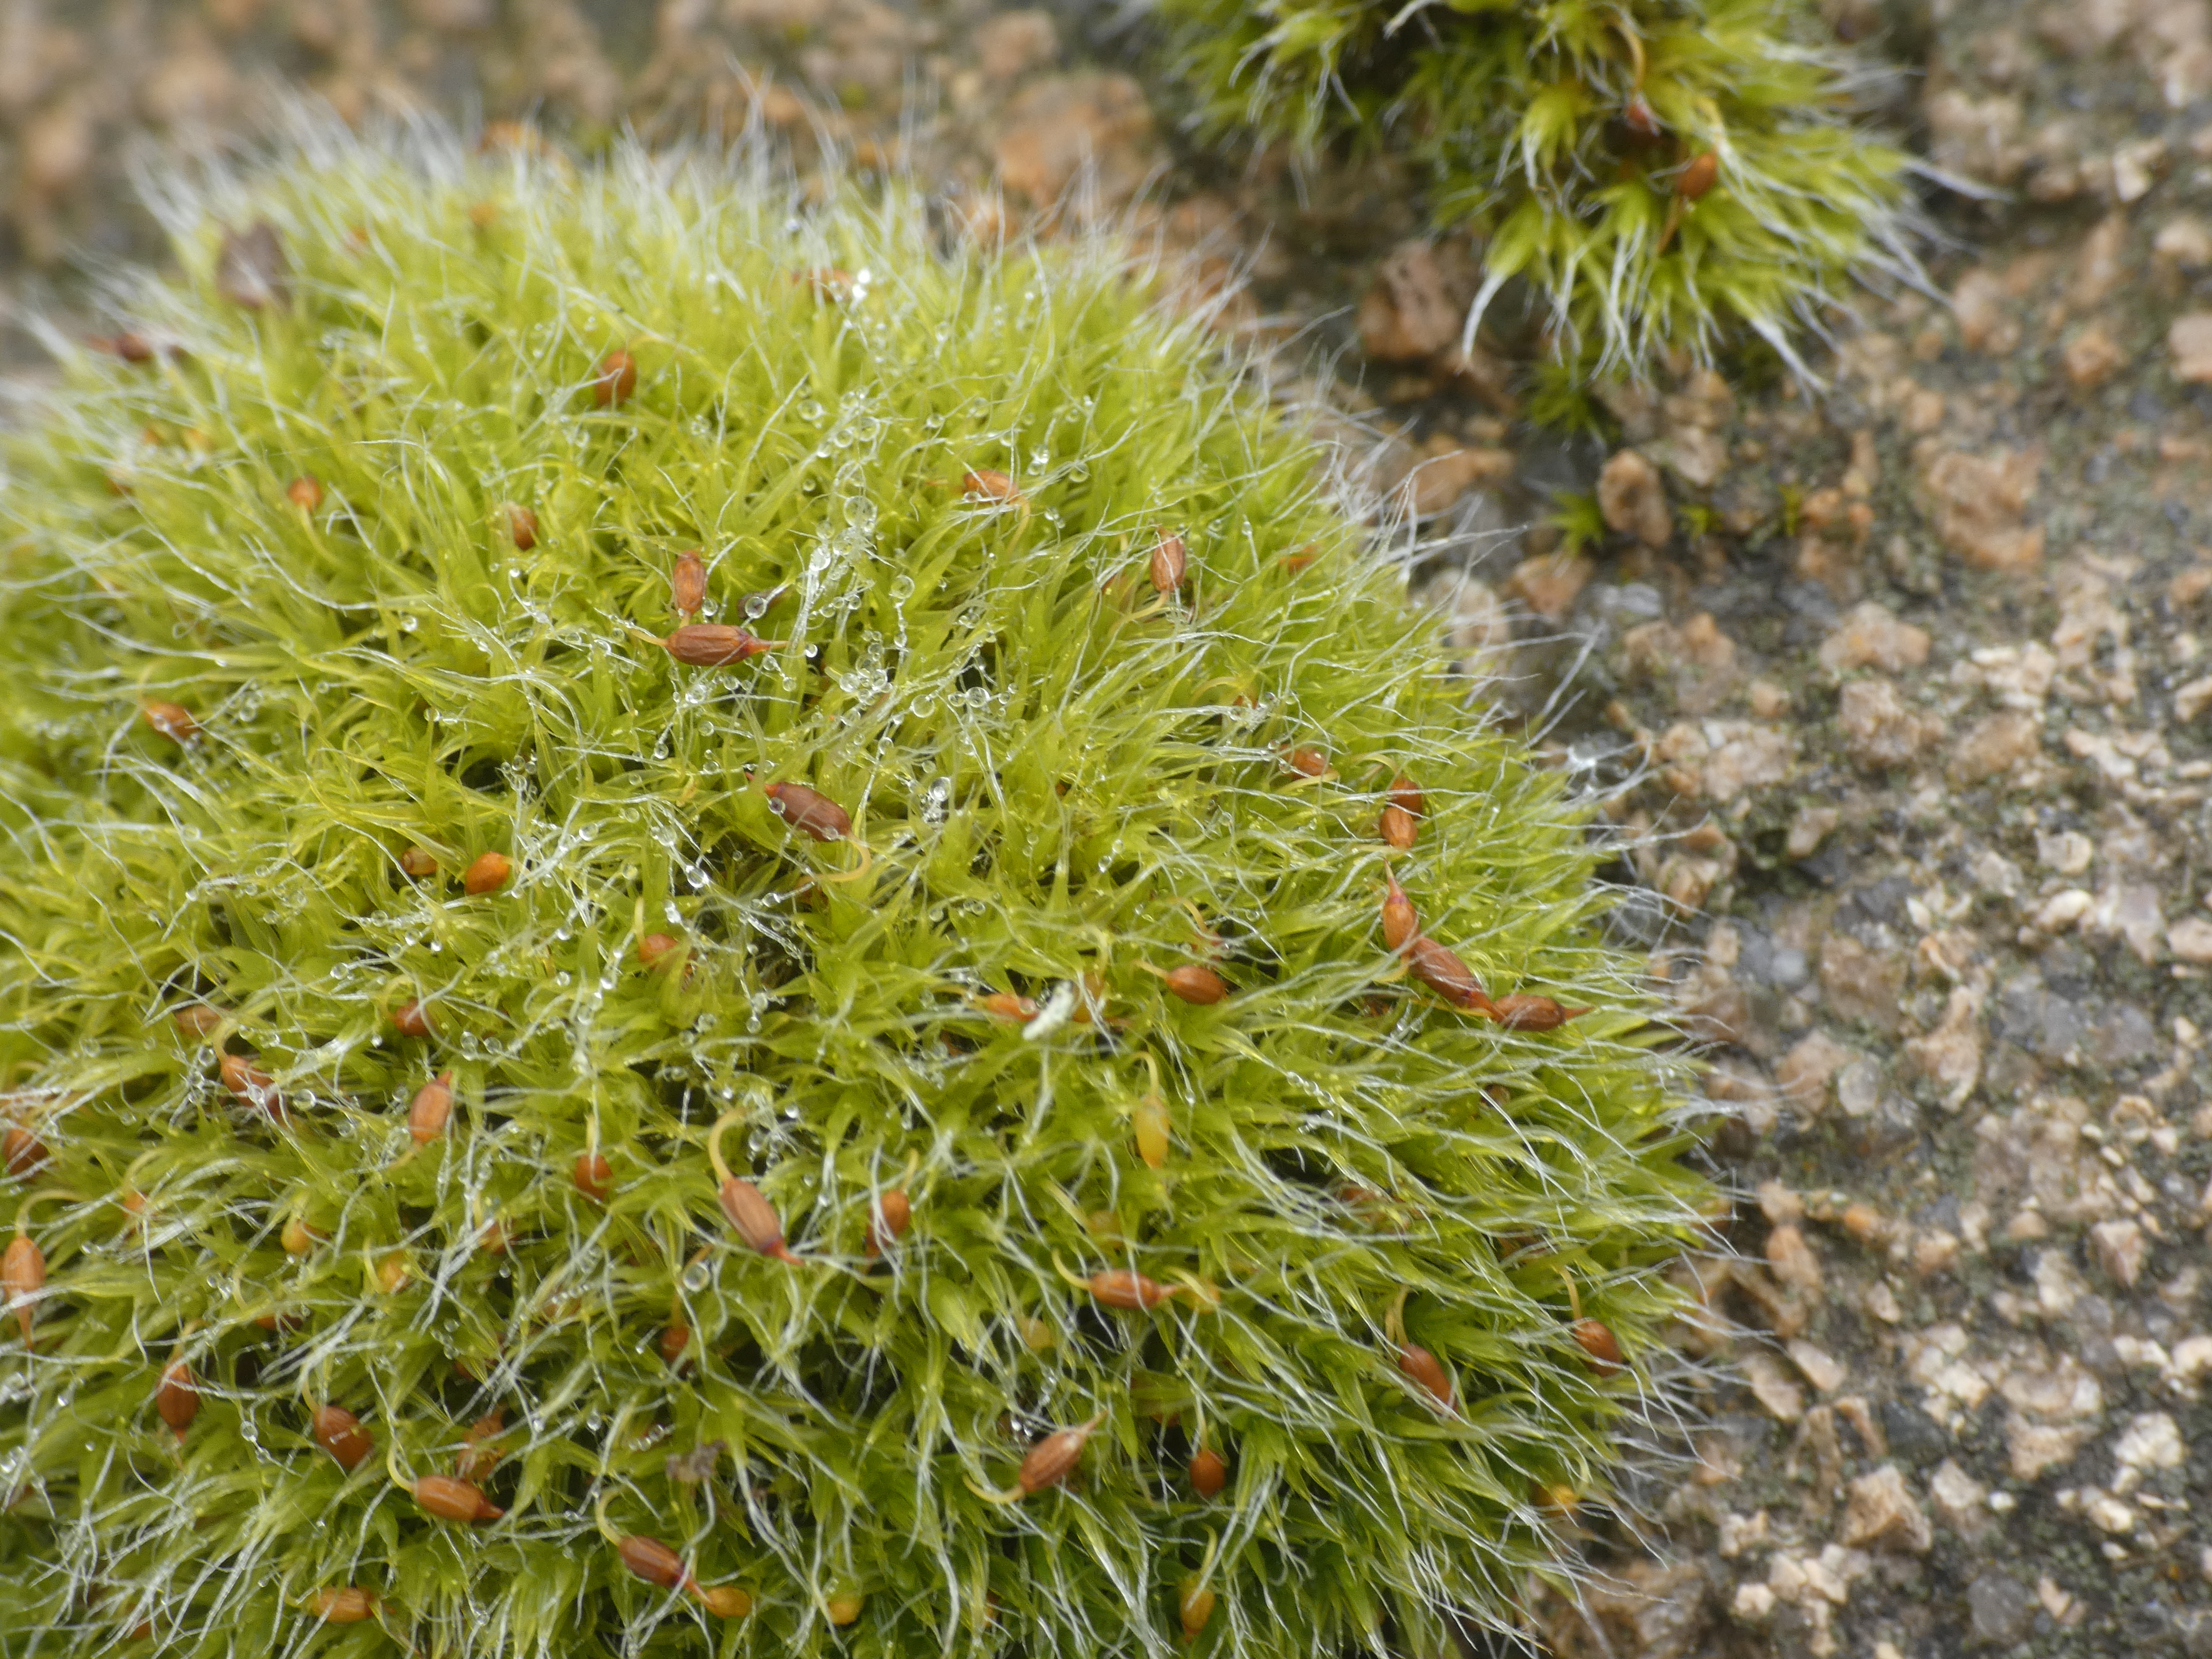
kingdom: Plantae
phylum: Bryophyta
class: Bryopsida
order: Grimmiales
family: Grimmiaceae
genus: Grimmia
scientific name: Grimmia pulvinata
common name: Pude-gråmos
